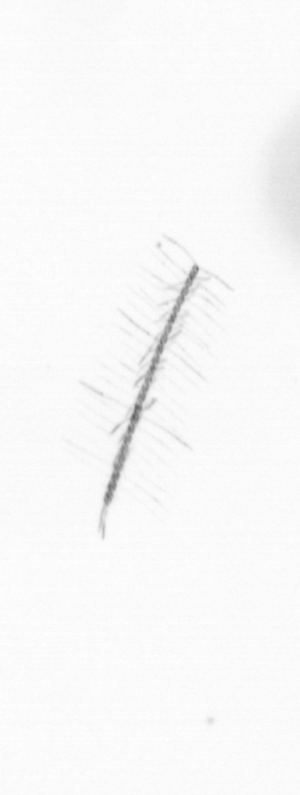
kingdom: Chromista
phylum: Ochrophyta
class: Bacillariophyceae
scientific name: Bacillariophyceae
